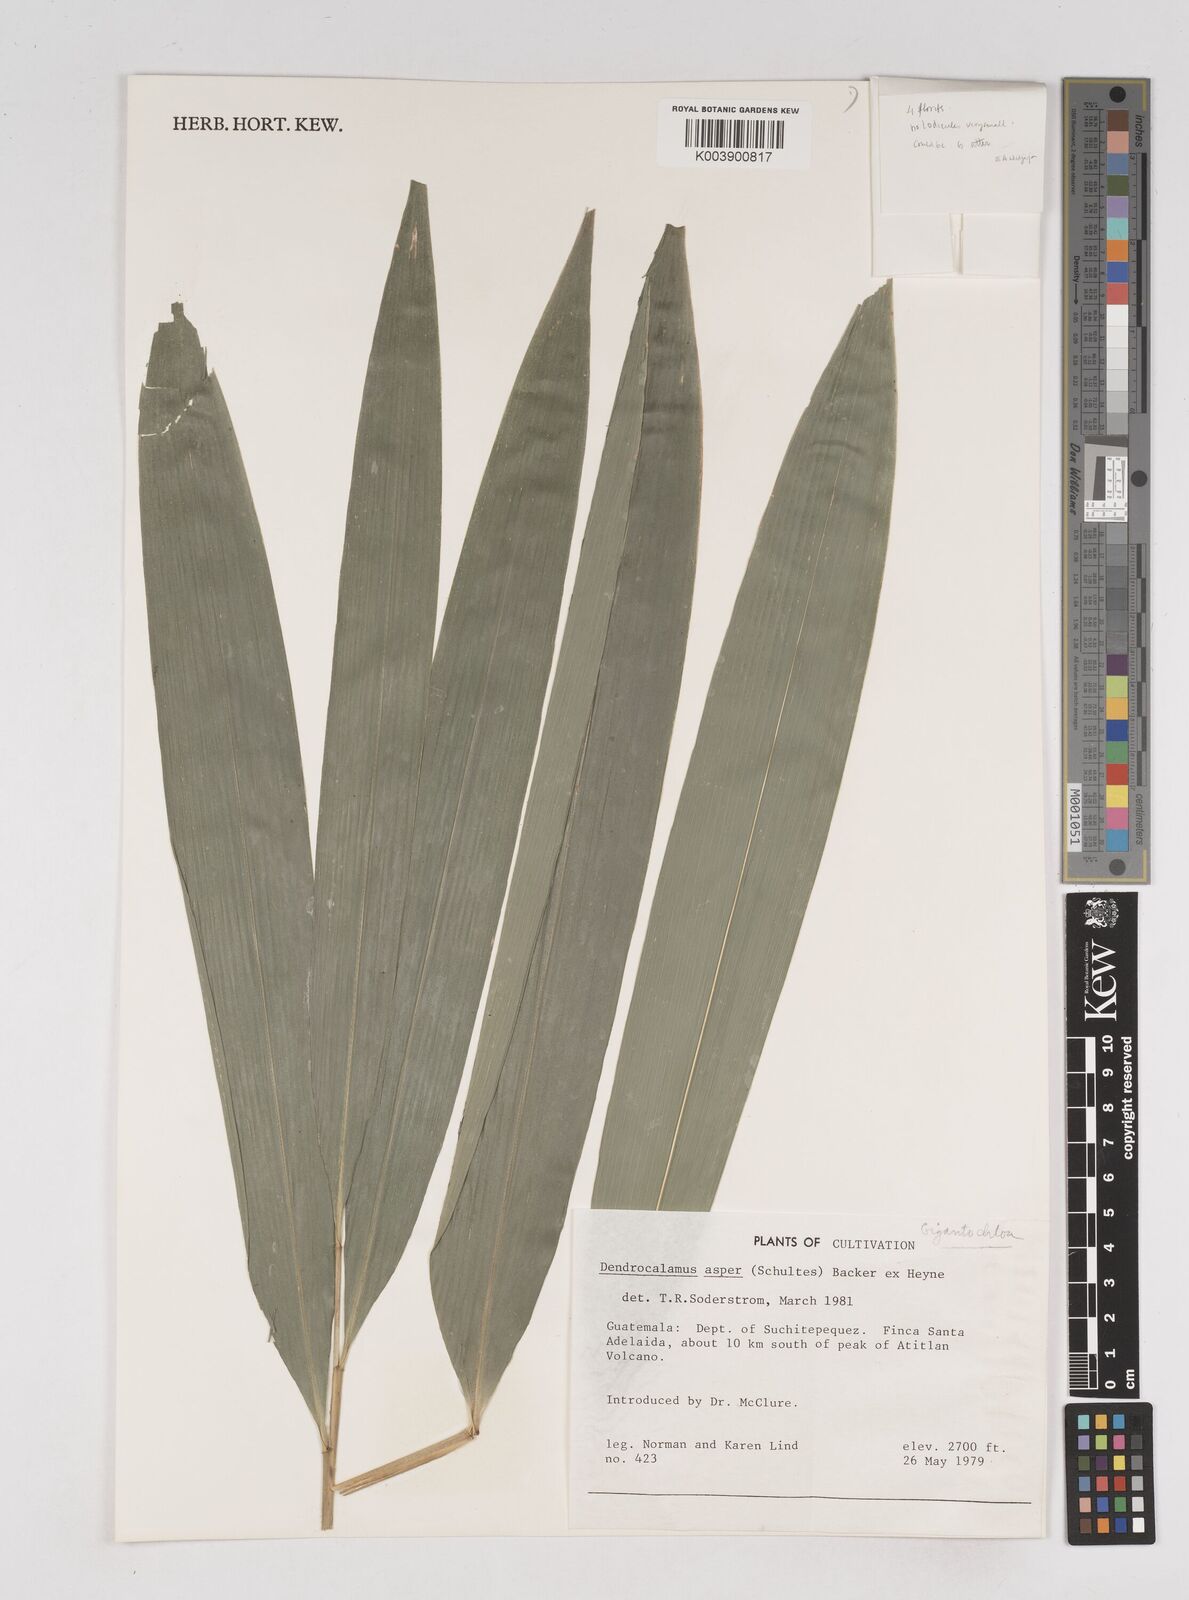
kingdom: Plantae
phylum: Tracheophyta
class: Liliopsida
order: Poales
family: Poaceae
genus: Gigantochloa
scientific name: Gigantochloa
